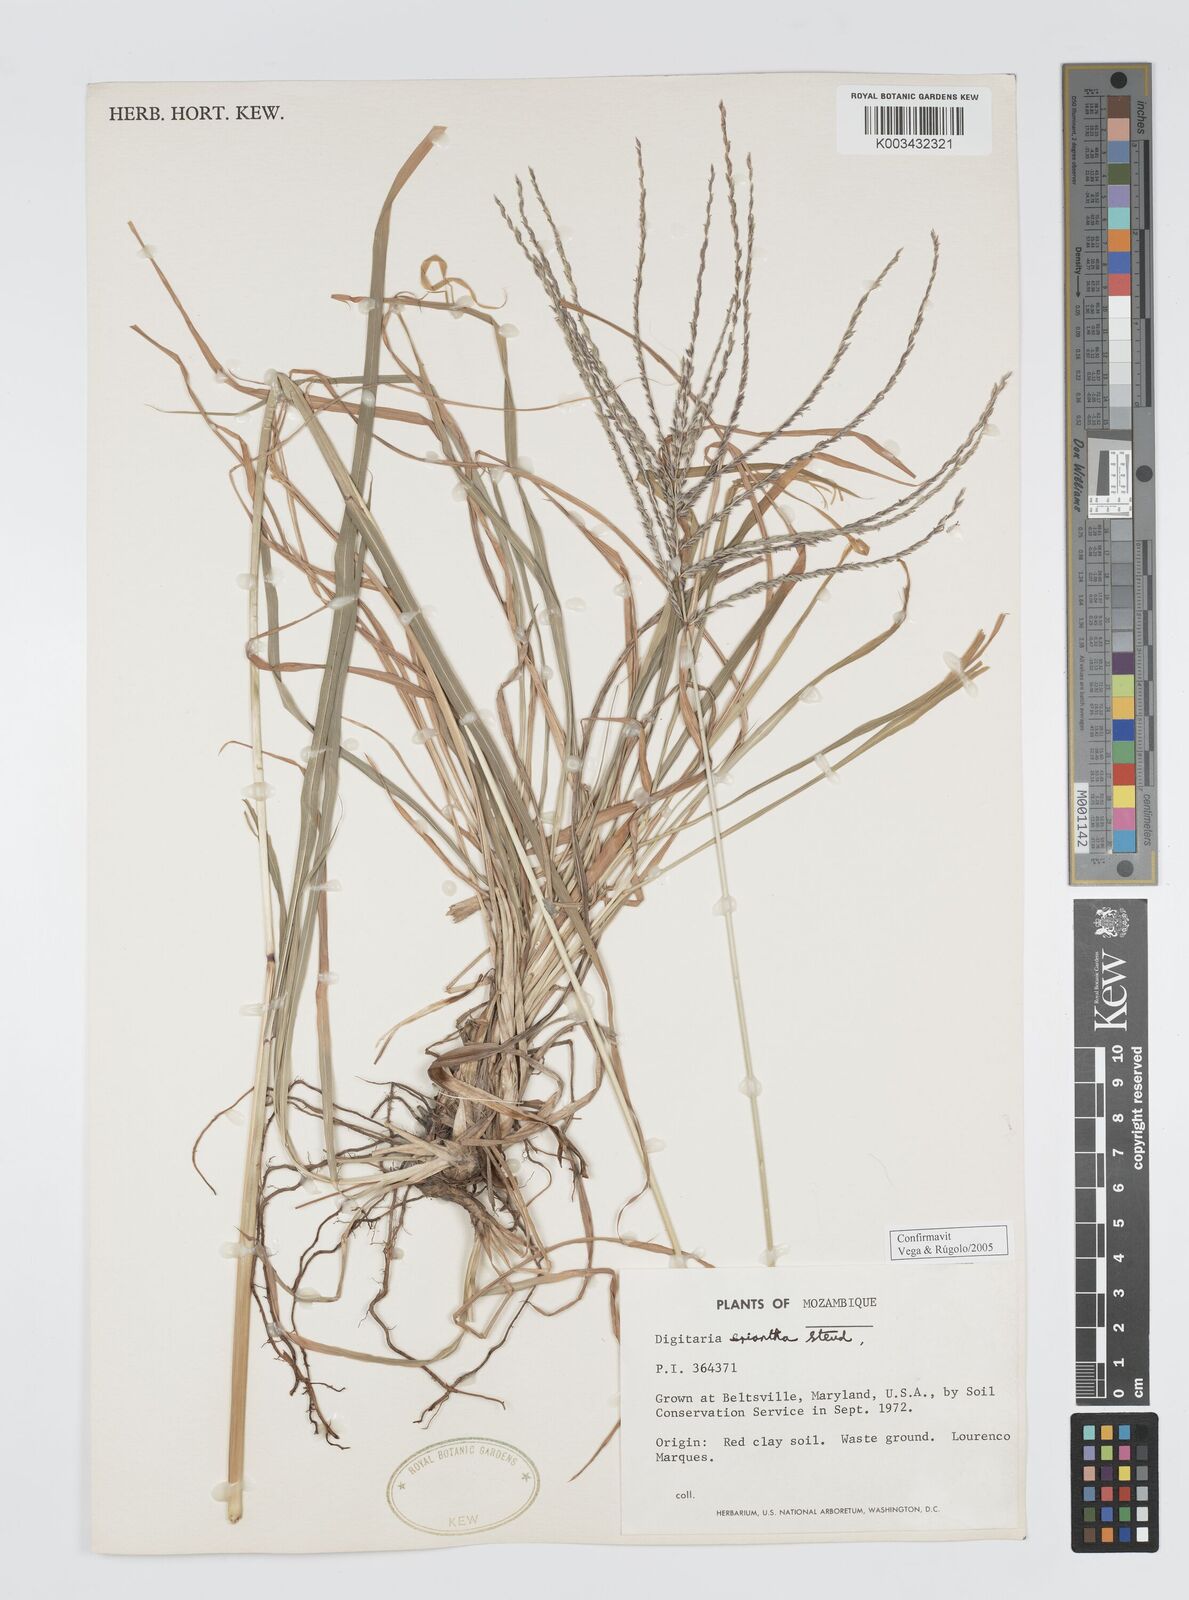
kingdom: Plantae
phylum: Tracheophyta
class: Liliopsida
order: Poales
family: Poaceae
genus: Digitaria
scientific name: Digitaria eriantha
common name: Digitgrass
